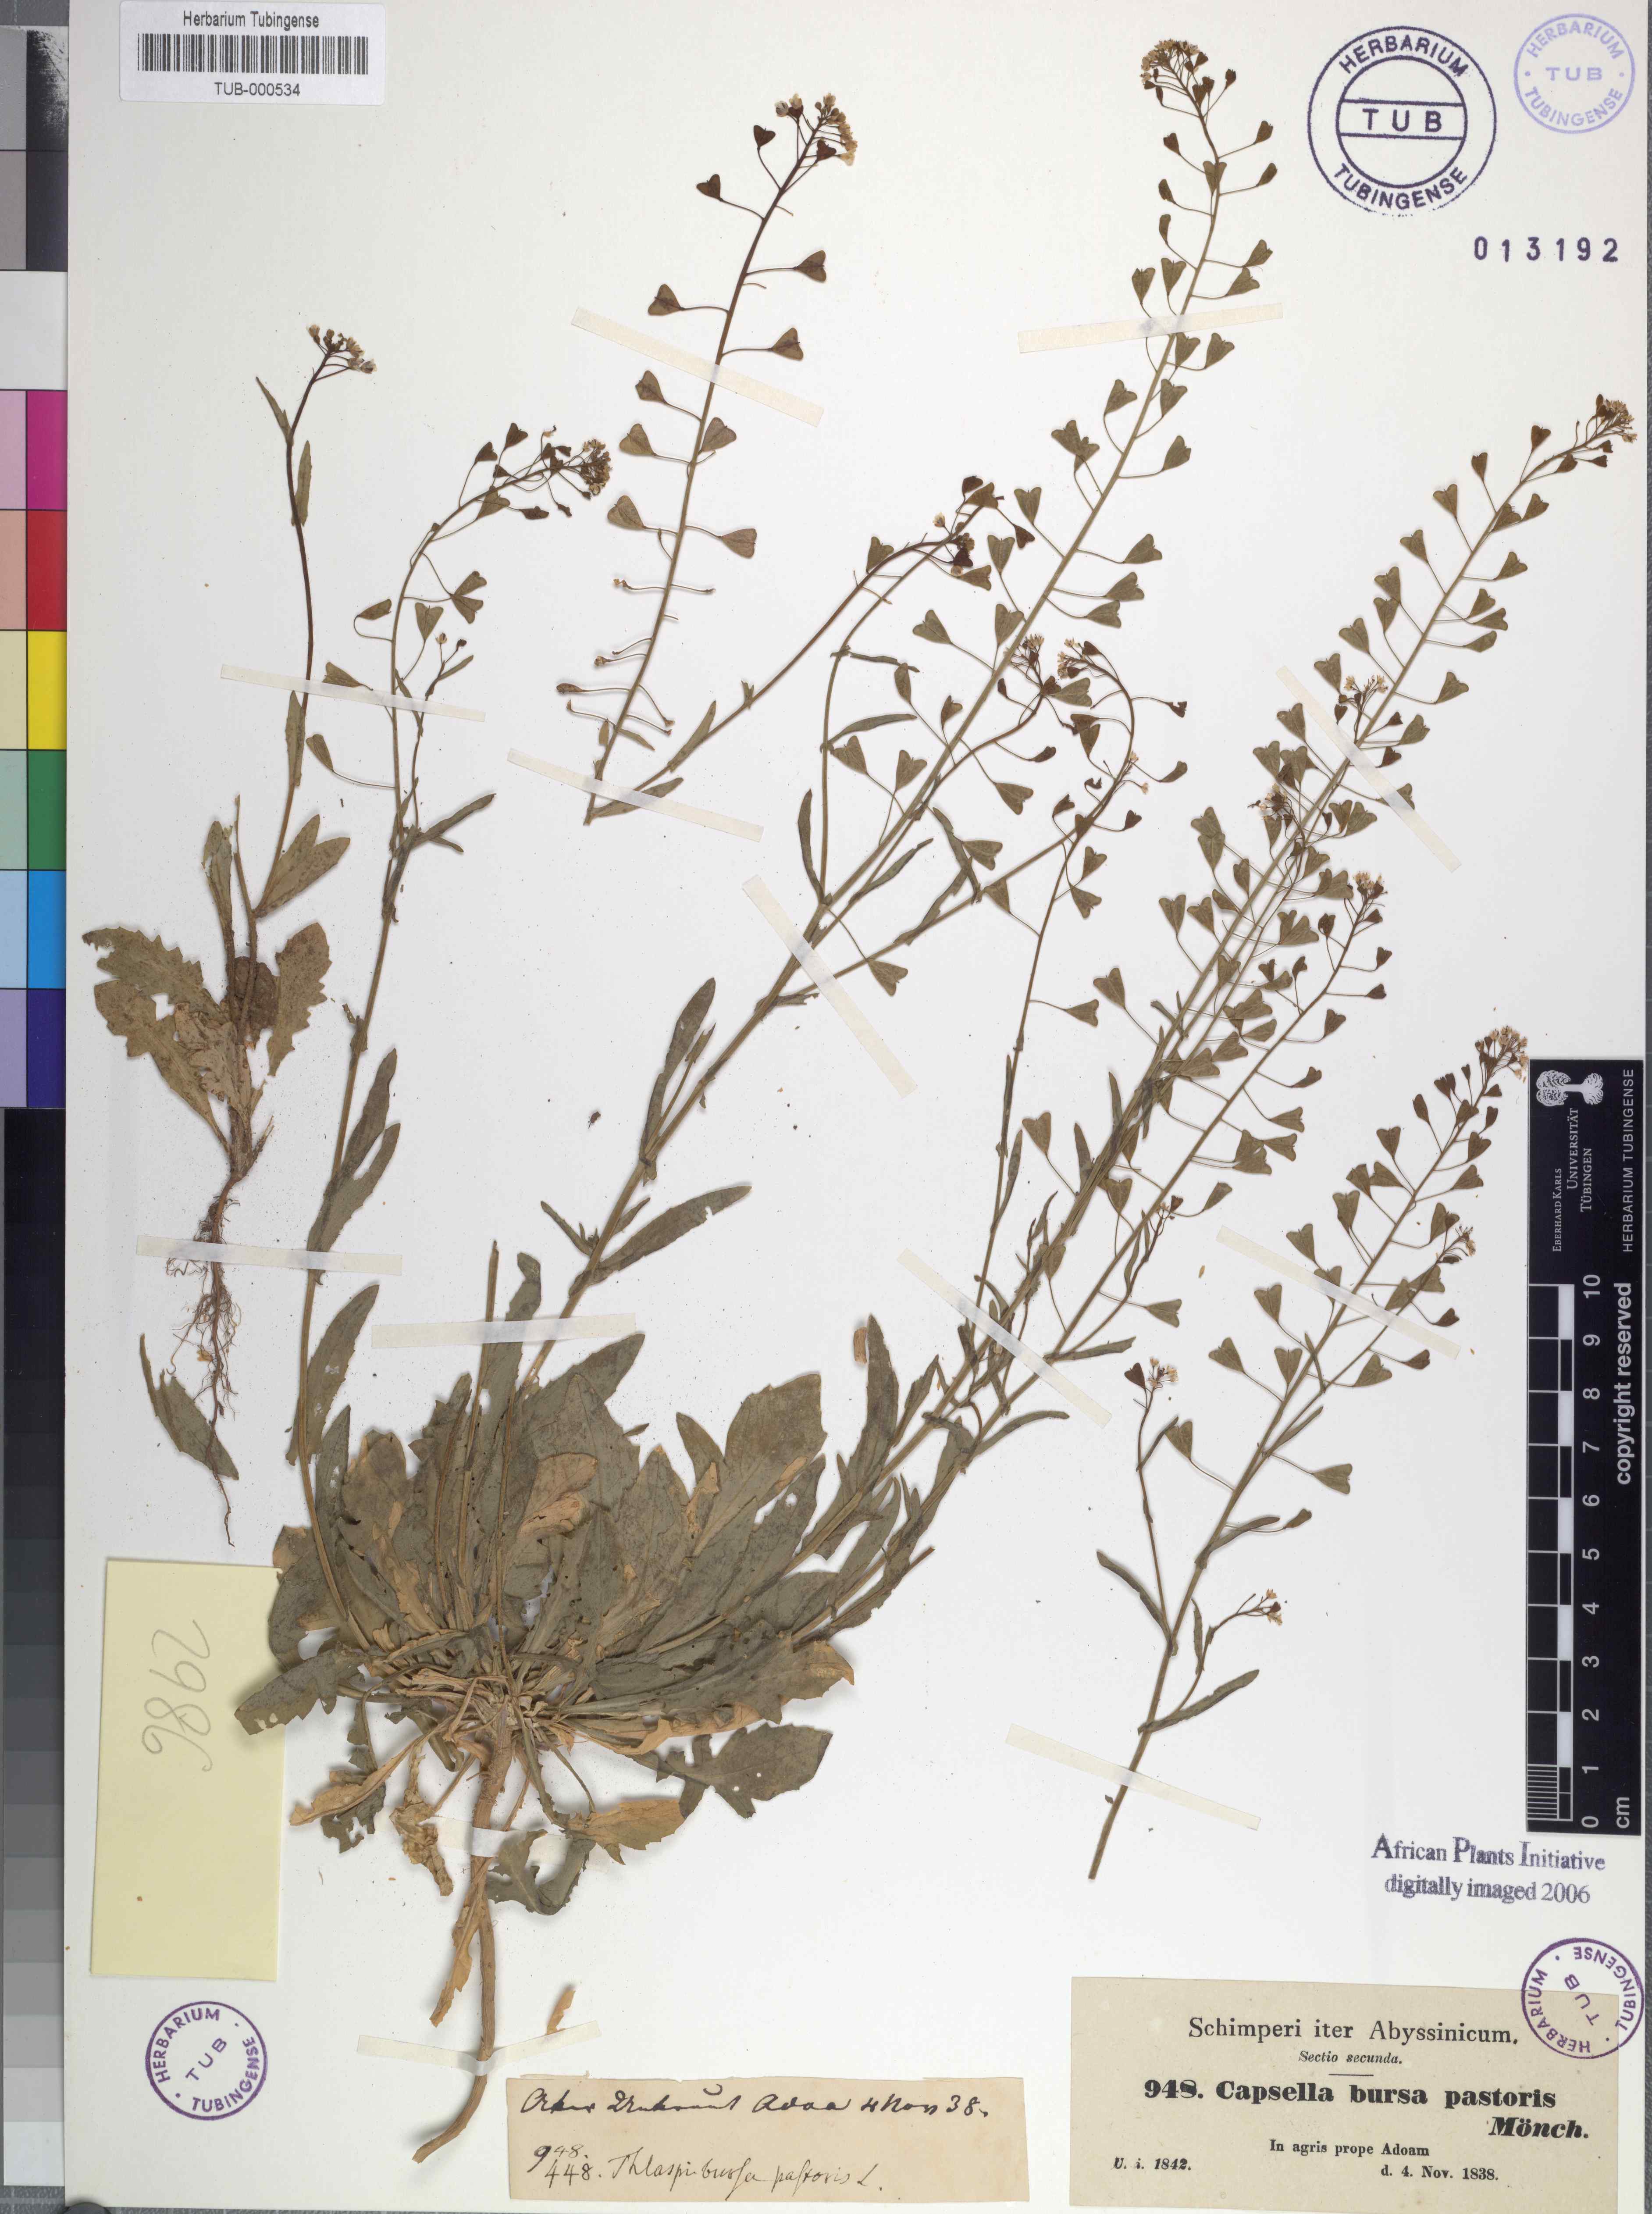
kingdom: Plantae
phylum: Tracheophyta
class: Magnoliopsida
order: Brassicales
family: Brassicaceae
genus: Capsella
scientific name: Capsella bursa-pastoris
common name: Shepherd's purse
